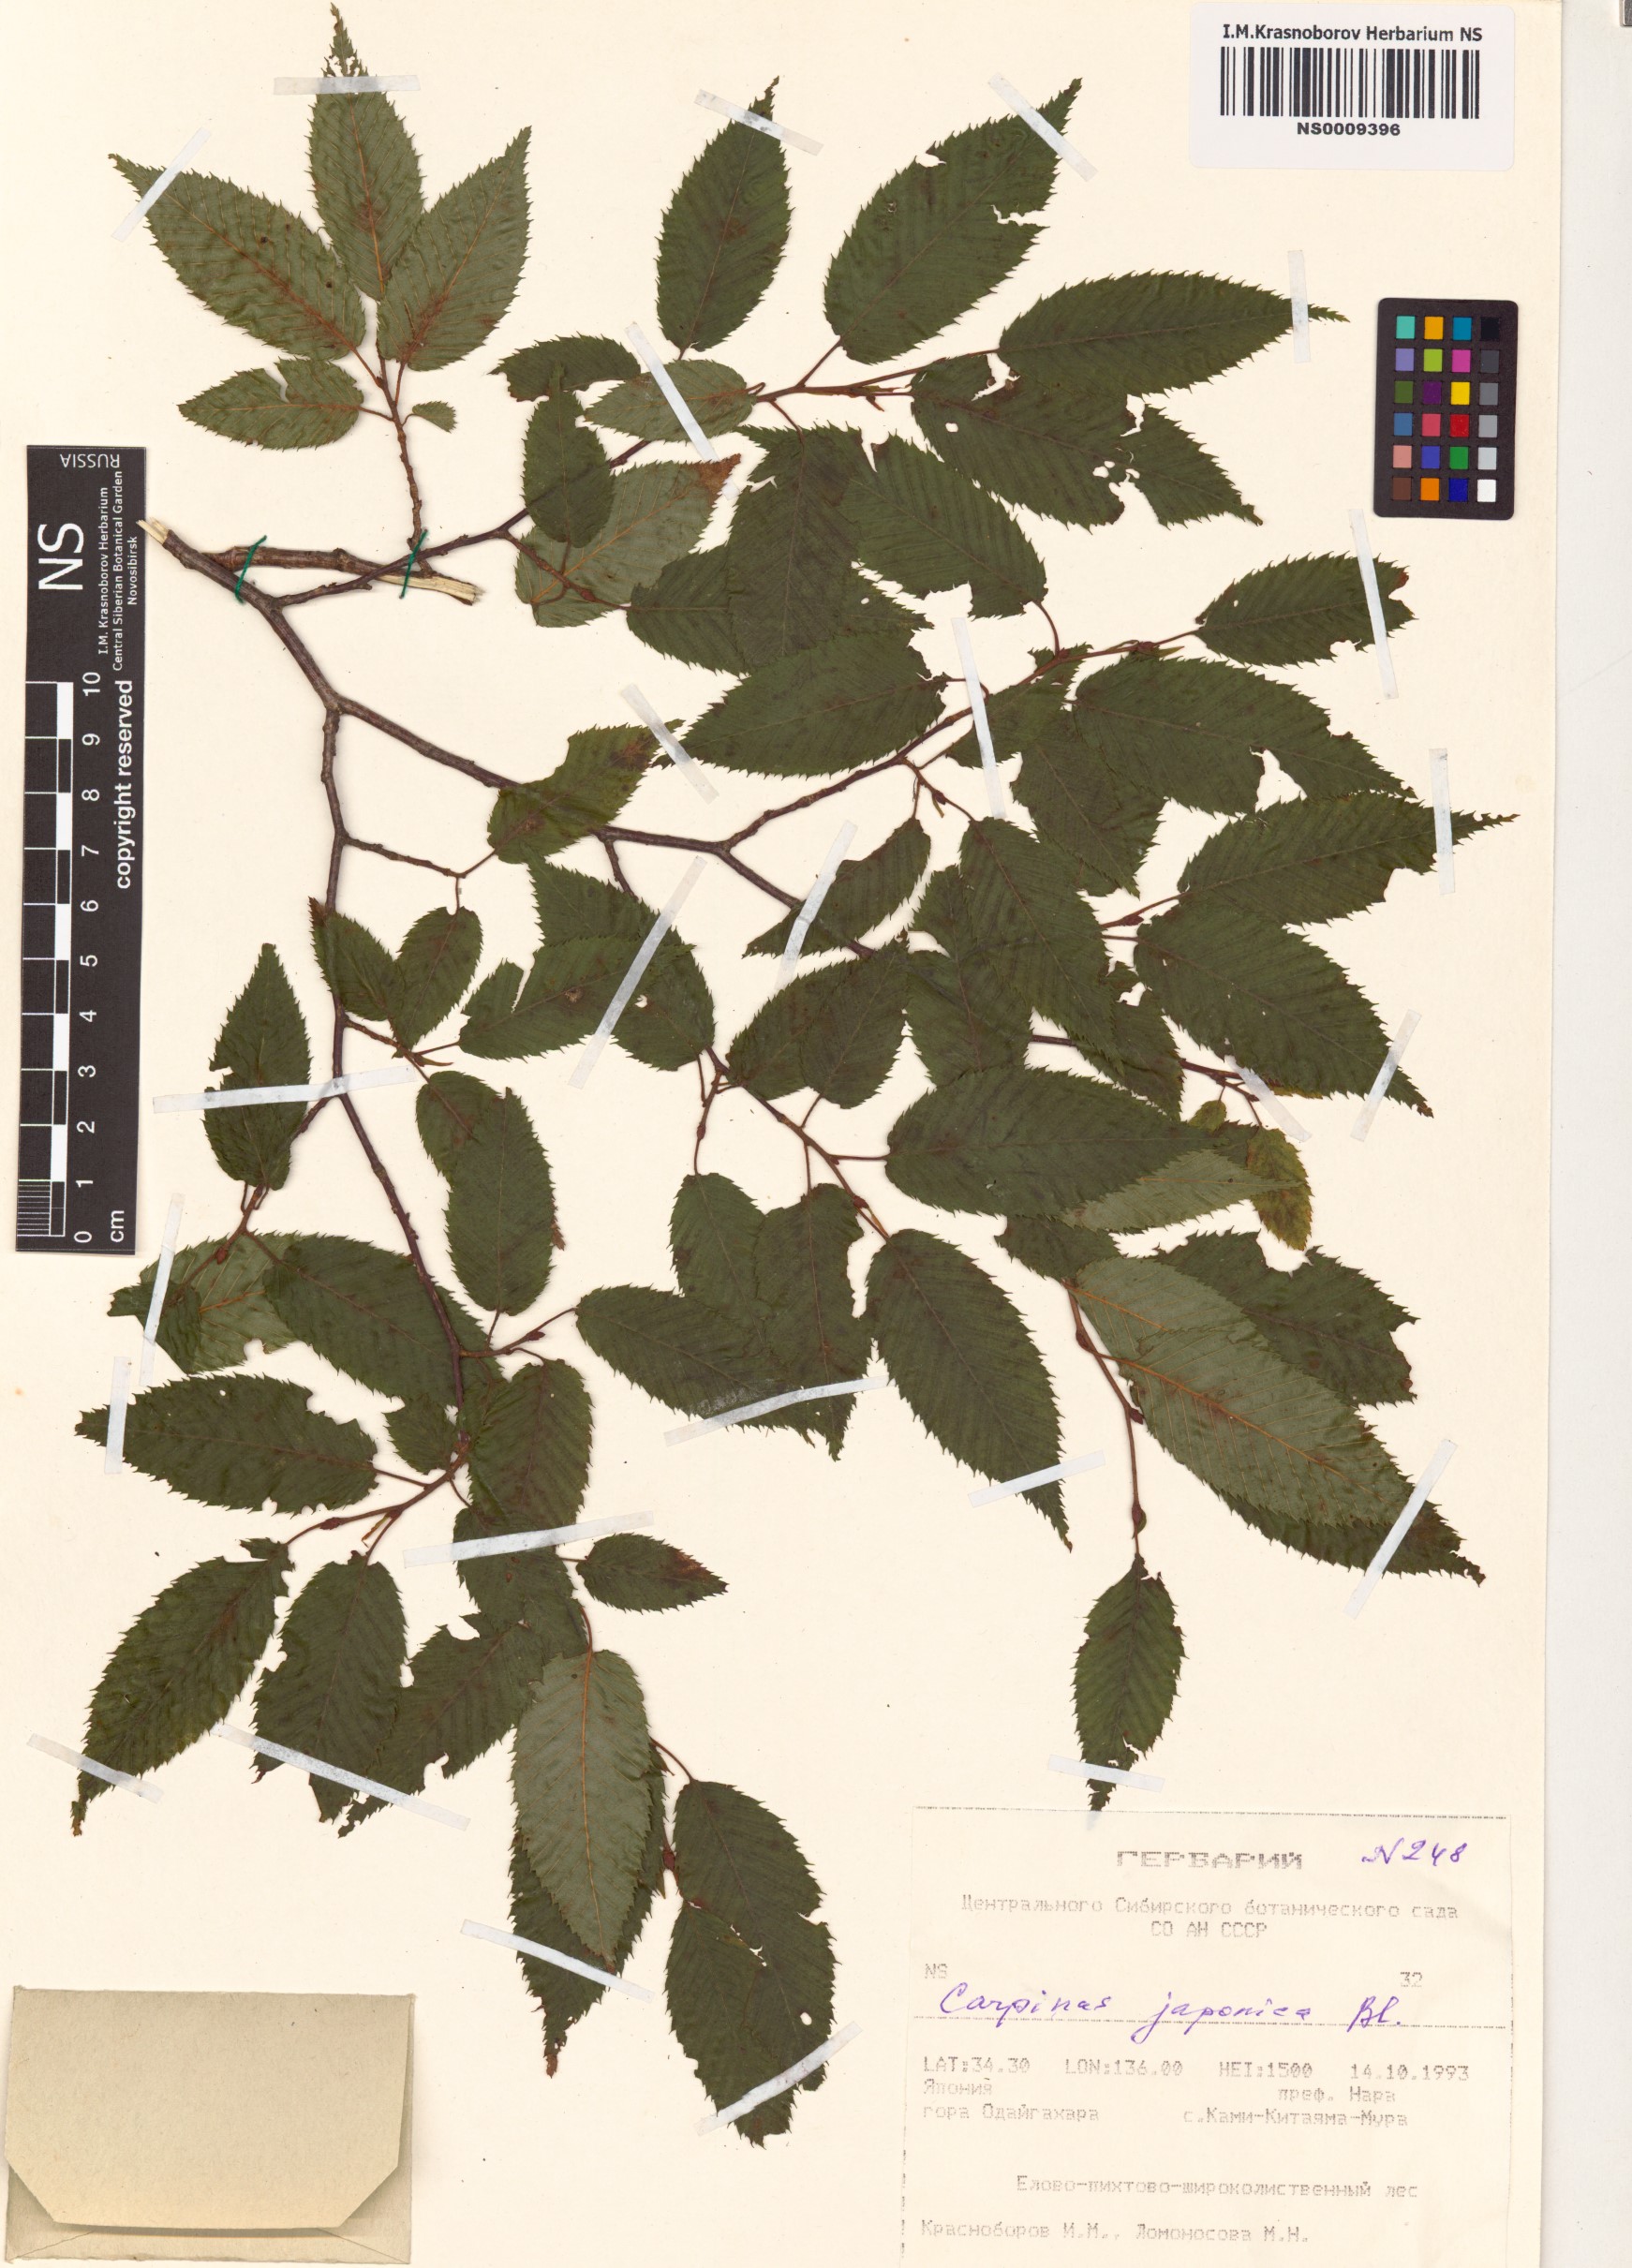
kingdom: Plantae
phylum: Tracheophyta
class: Magnoliopsida
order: Fagales
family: Betulaceae
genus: Carpinus
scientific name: Carpinus japonica
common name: Japanese hornbeam
